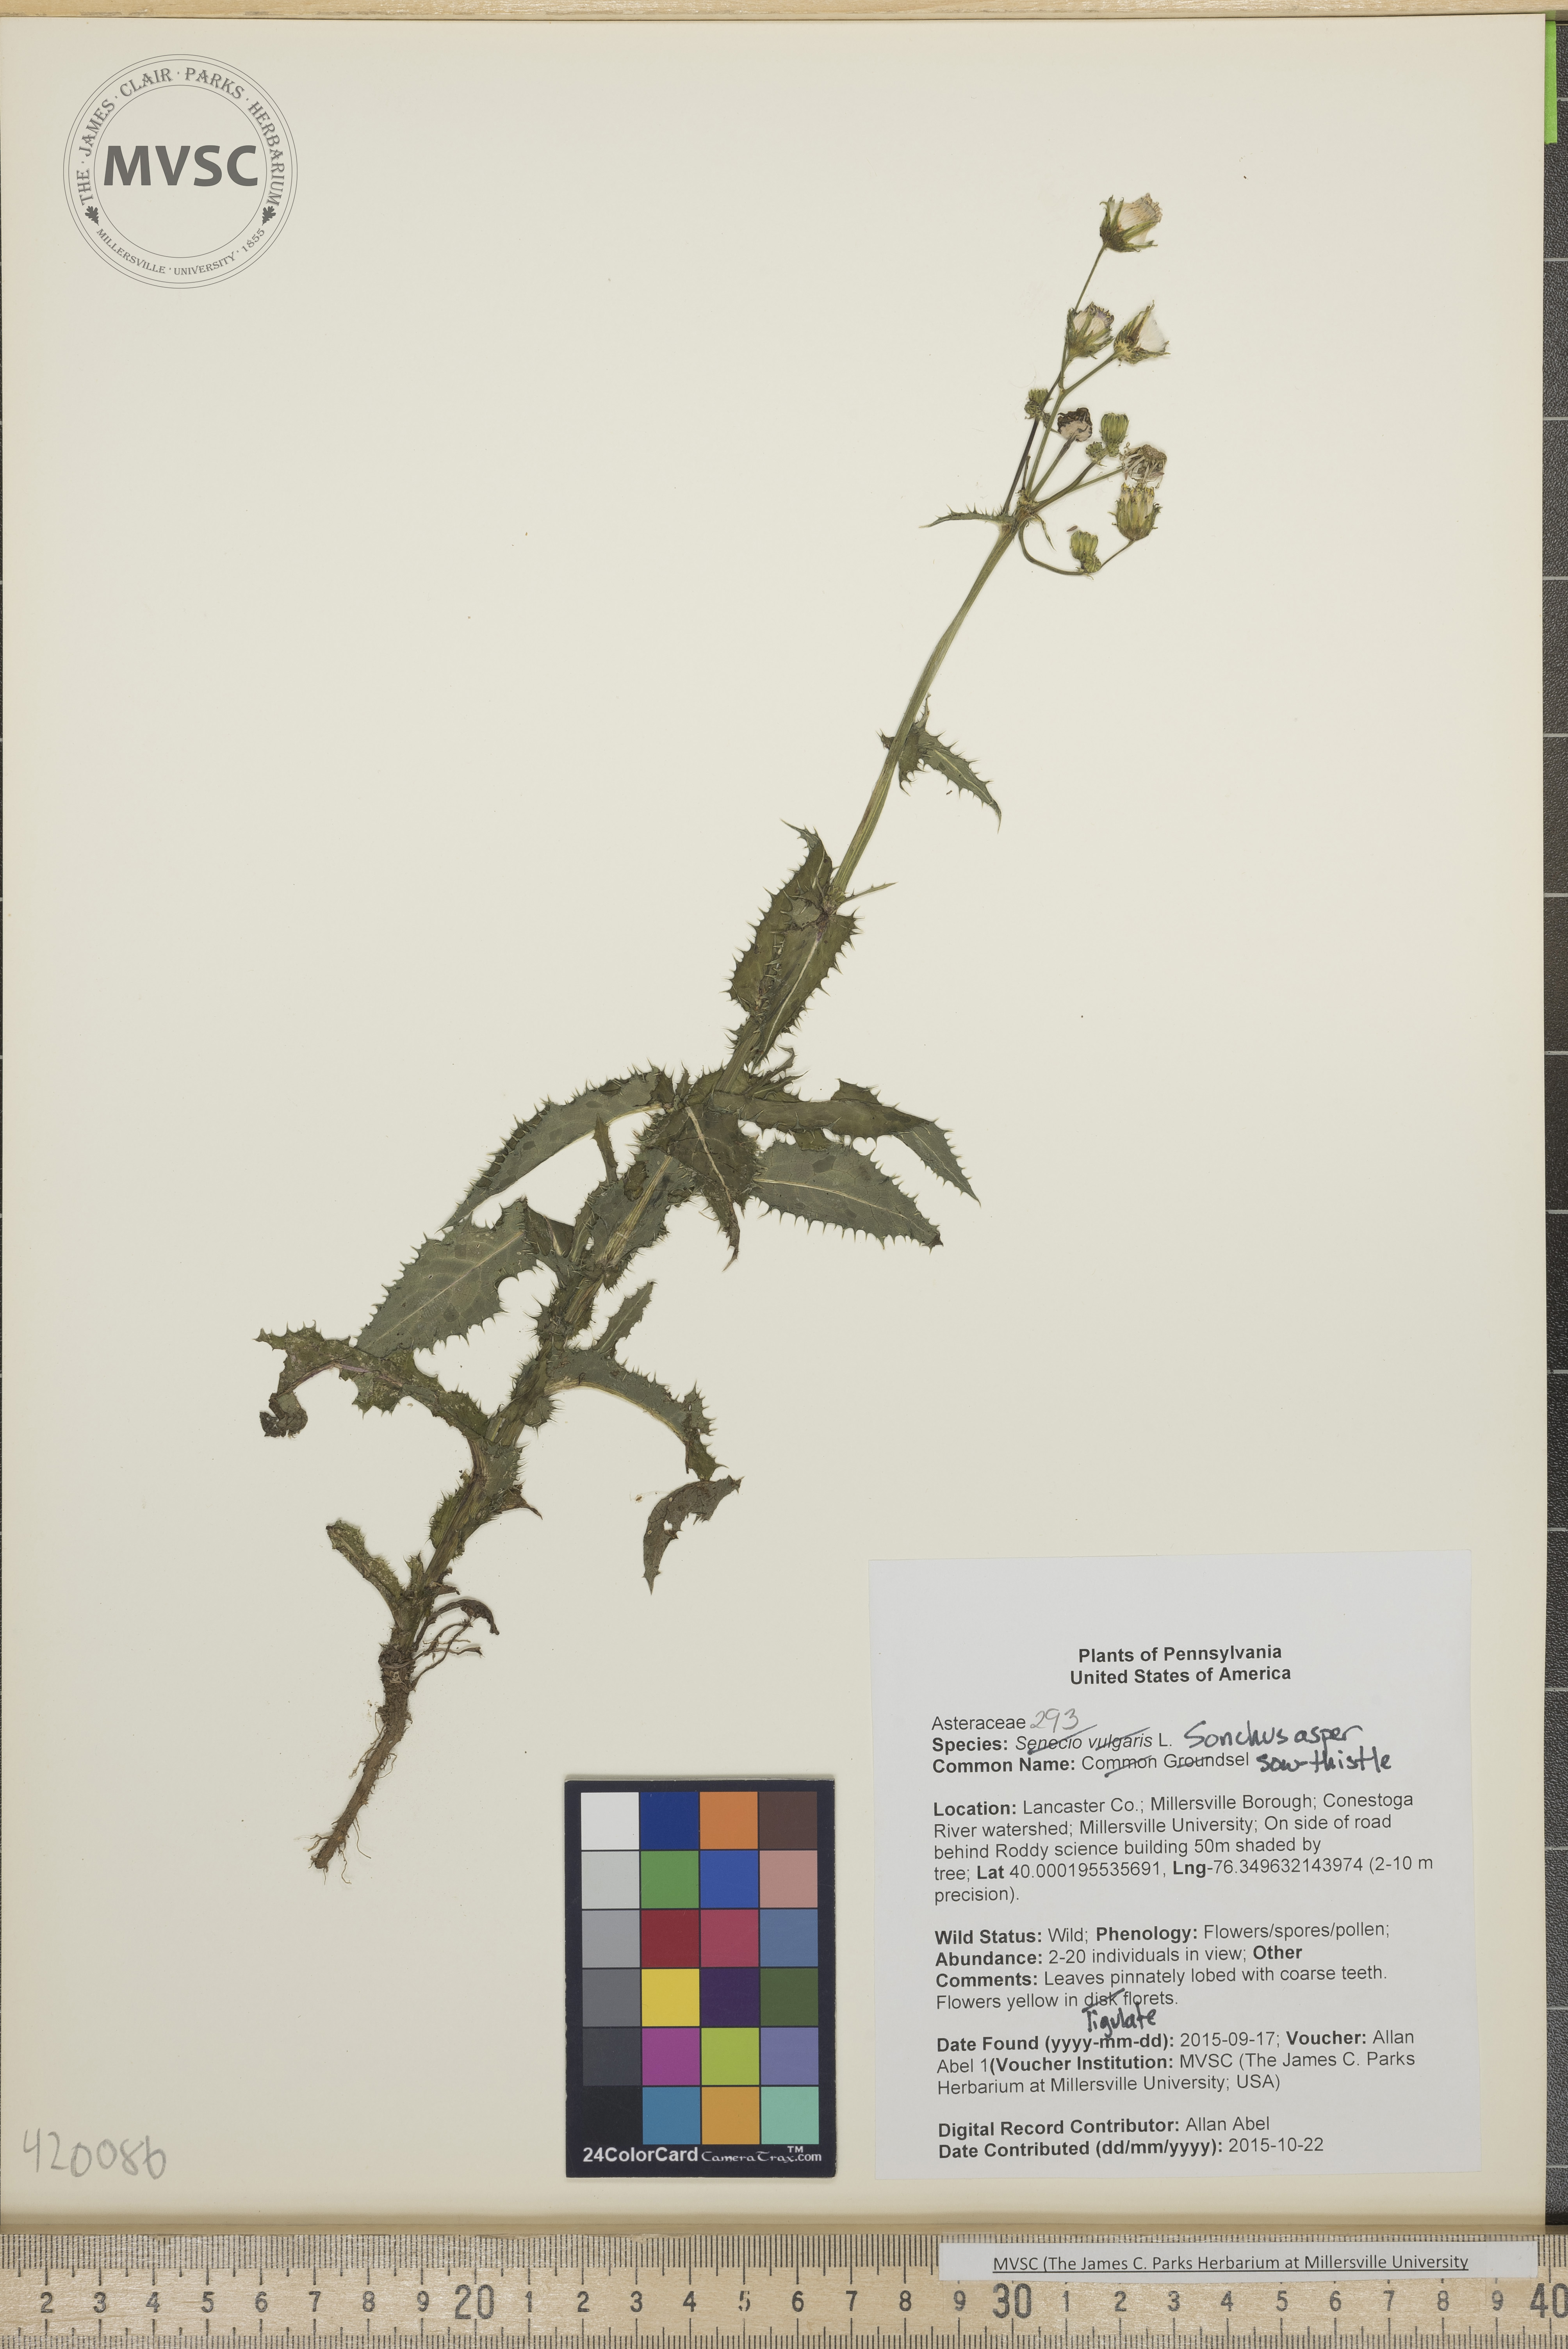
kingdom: Plantae
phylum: Tracheophyta
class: Magnoliopsida
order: Asterales
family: Asteraceae
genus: Sonchus
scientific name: Sonchus asper
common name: Sow-thistle
